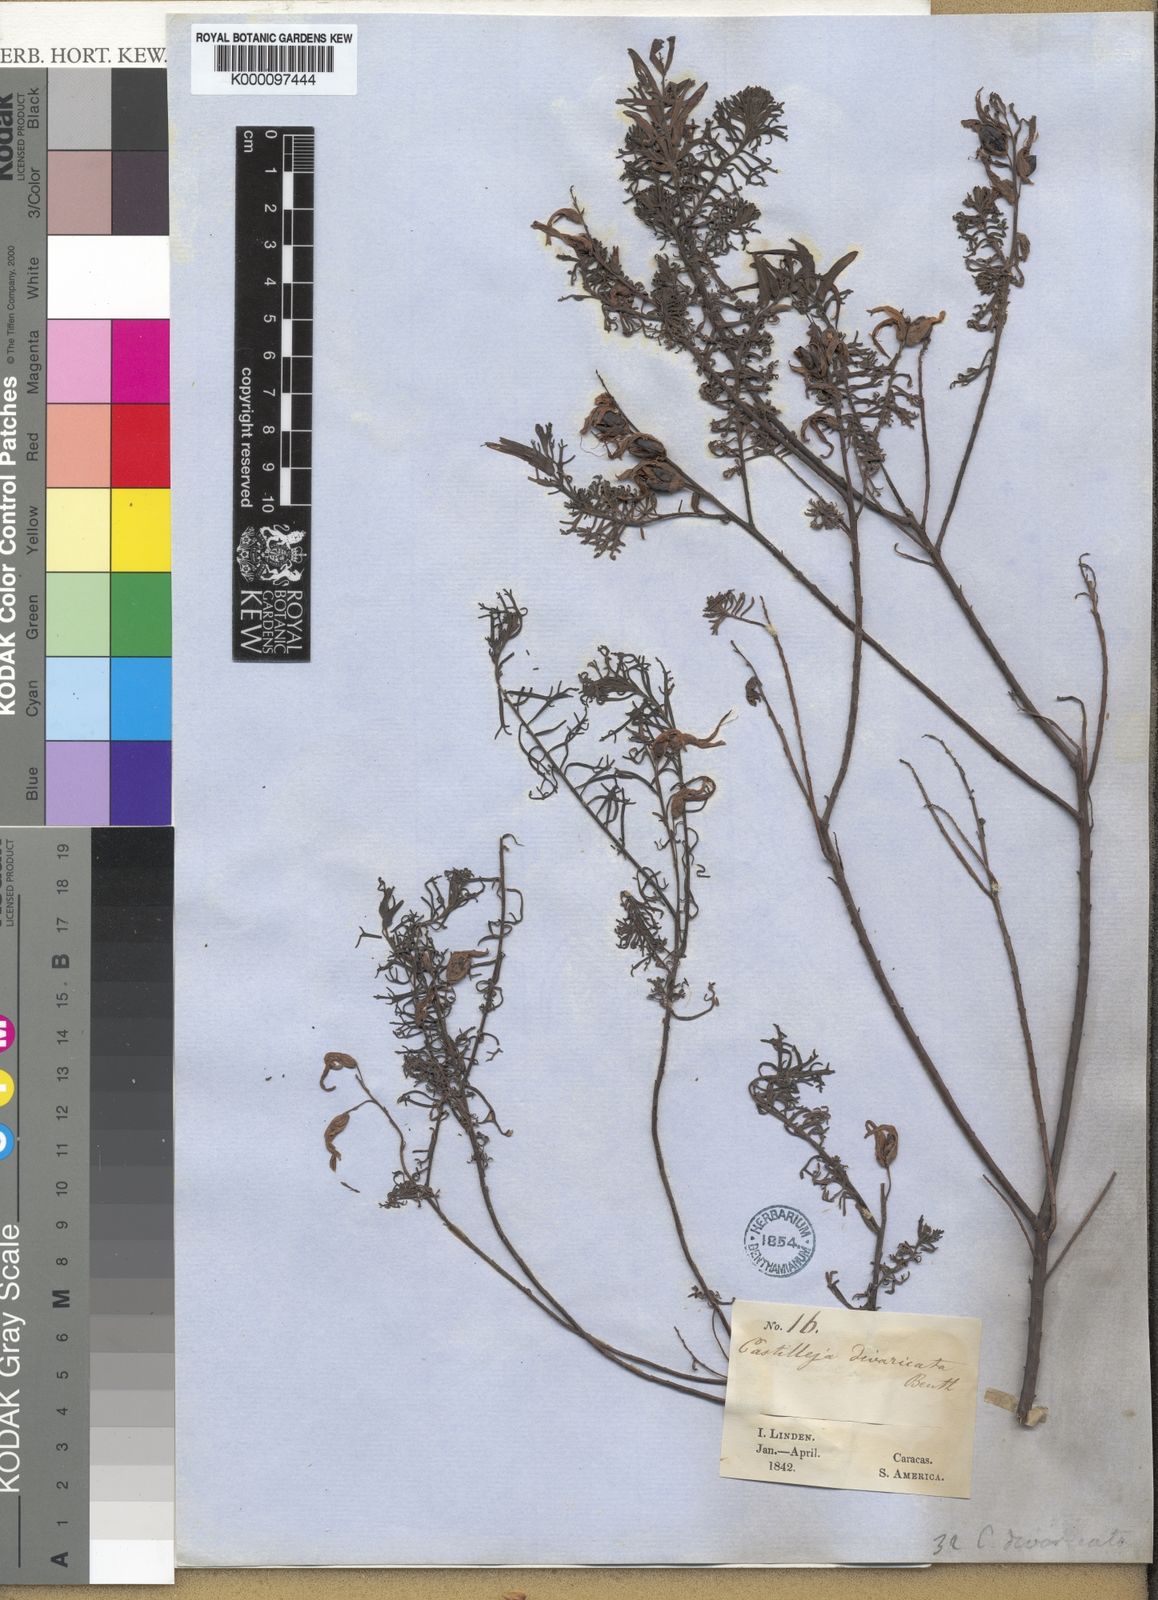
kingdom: Plantae
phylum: Tracheophyta
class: Magnoliopsida
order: Lamiales
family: Orobanchaceae
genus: Castilleja
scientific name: Castilleja fissifolia
